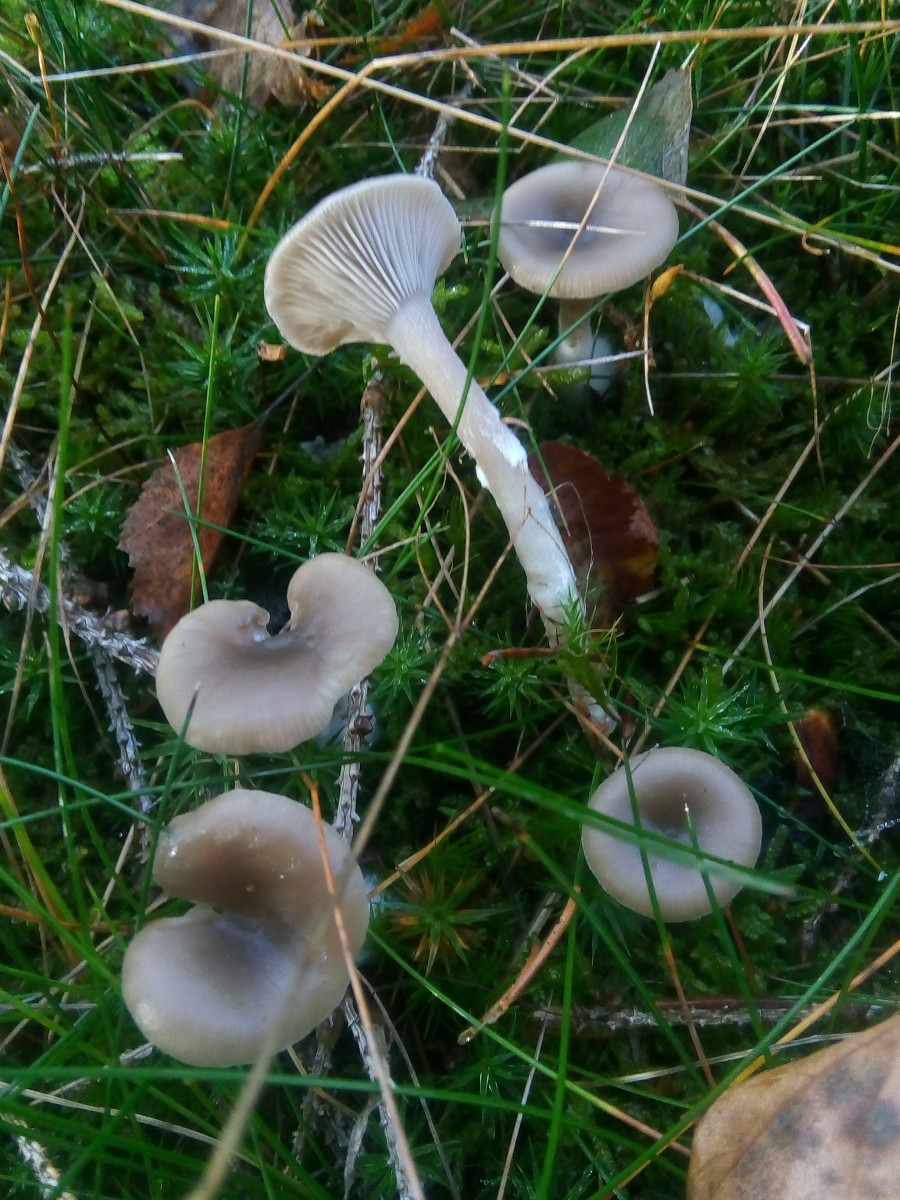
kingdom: Fungi
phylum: Basidiomycota
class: Agaricomycetes
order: Agaricales
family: Tricholomataceae
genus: Clitocybe
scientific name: Clitocybe
